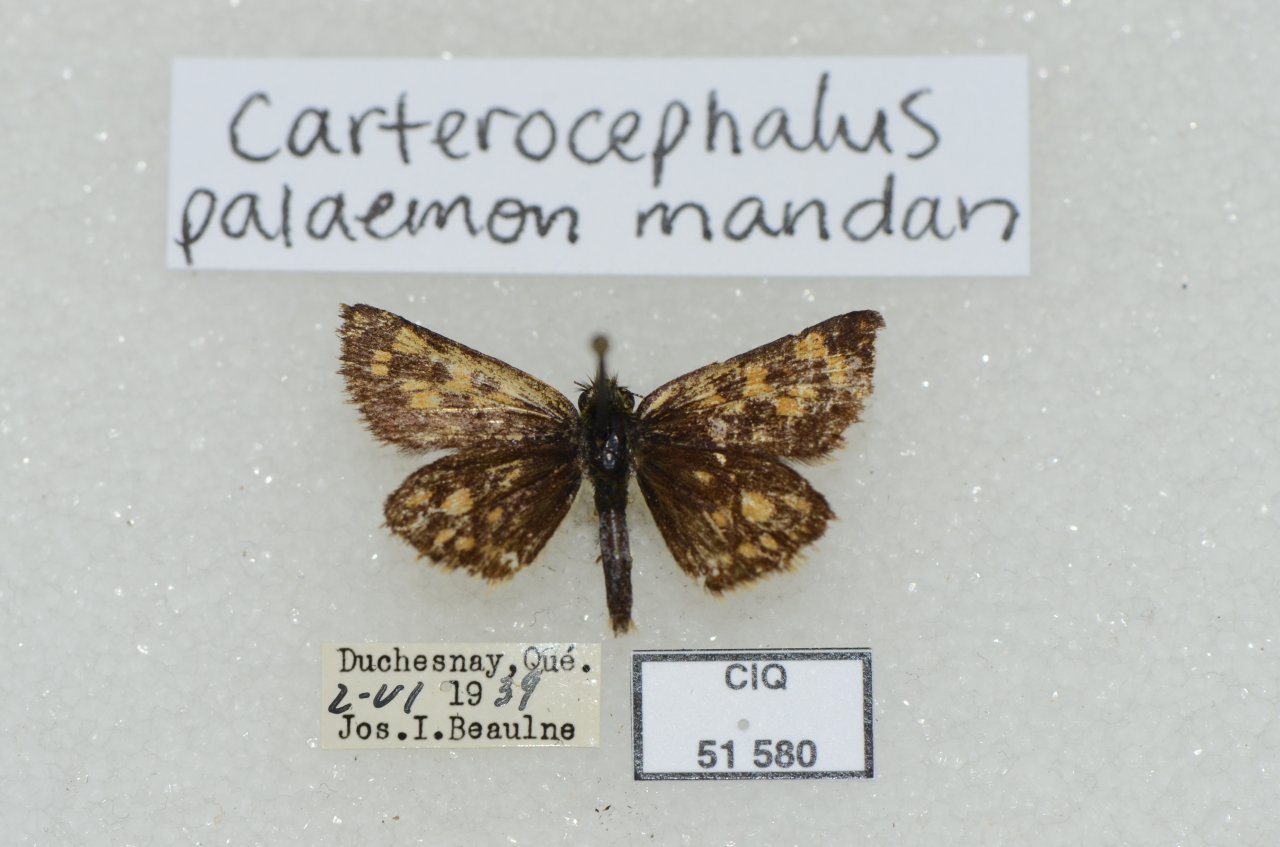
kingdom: Animalia
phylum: Arthropoda
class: Insecta
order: Lepidoptera
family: Hesperiidae
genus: Carterocephalus
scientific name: Carterocephalus palaemon
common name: Chequered Skipper
